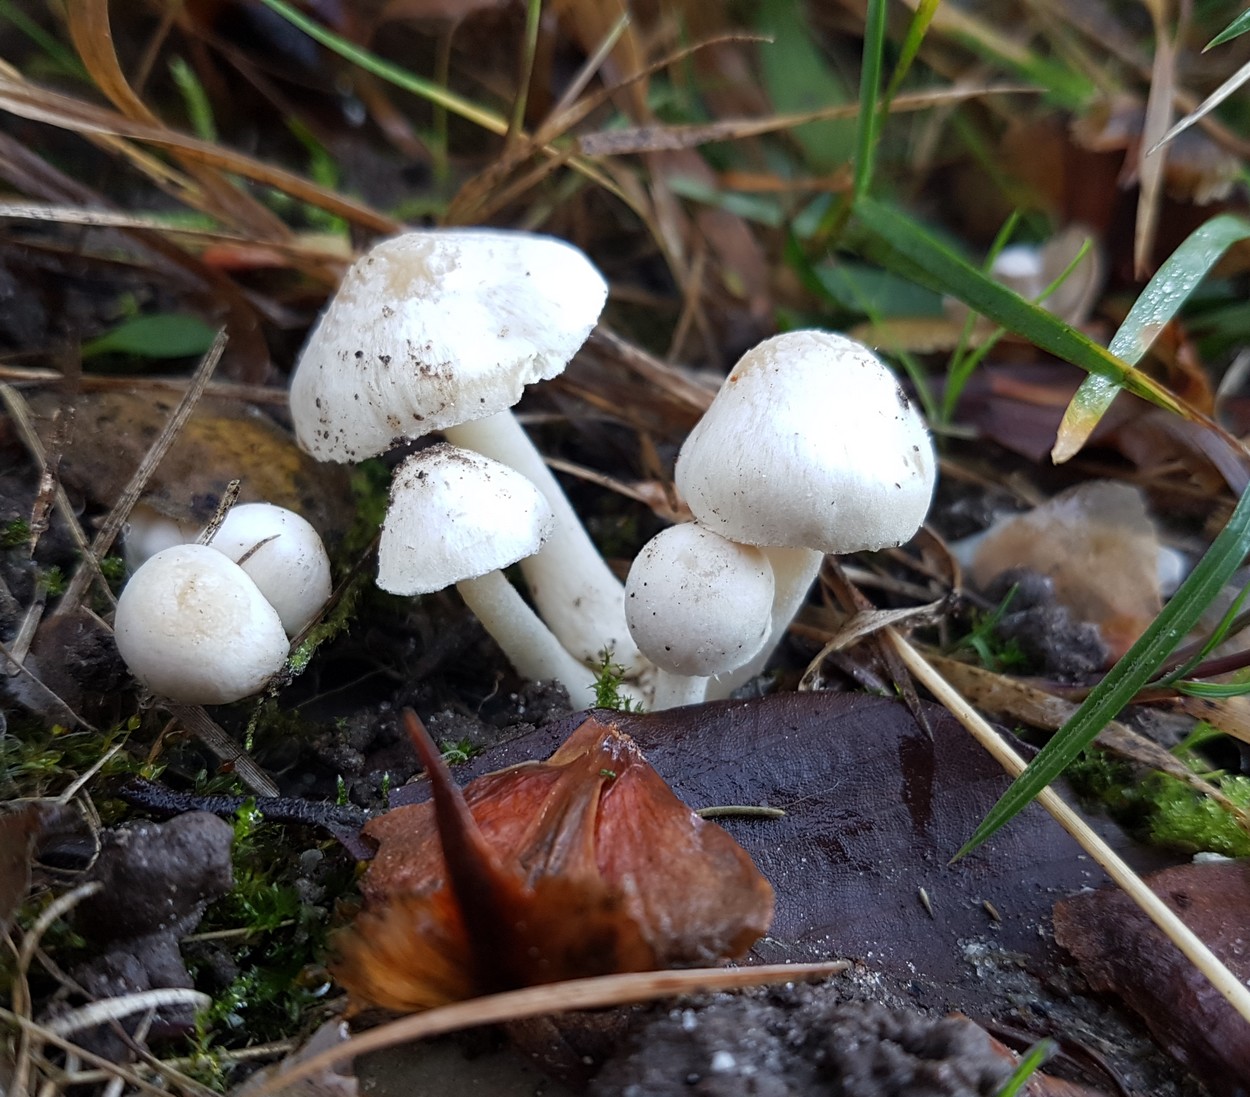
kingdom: Fungi
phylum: Basidiomycota
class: Agaricomycetes
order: Agaricales
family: Inocybaceae
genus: Inocybe
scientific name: Inocybe
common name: almindelig trævlhat
